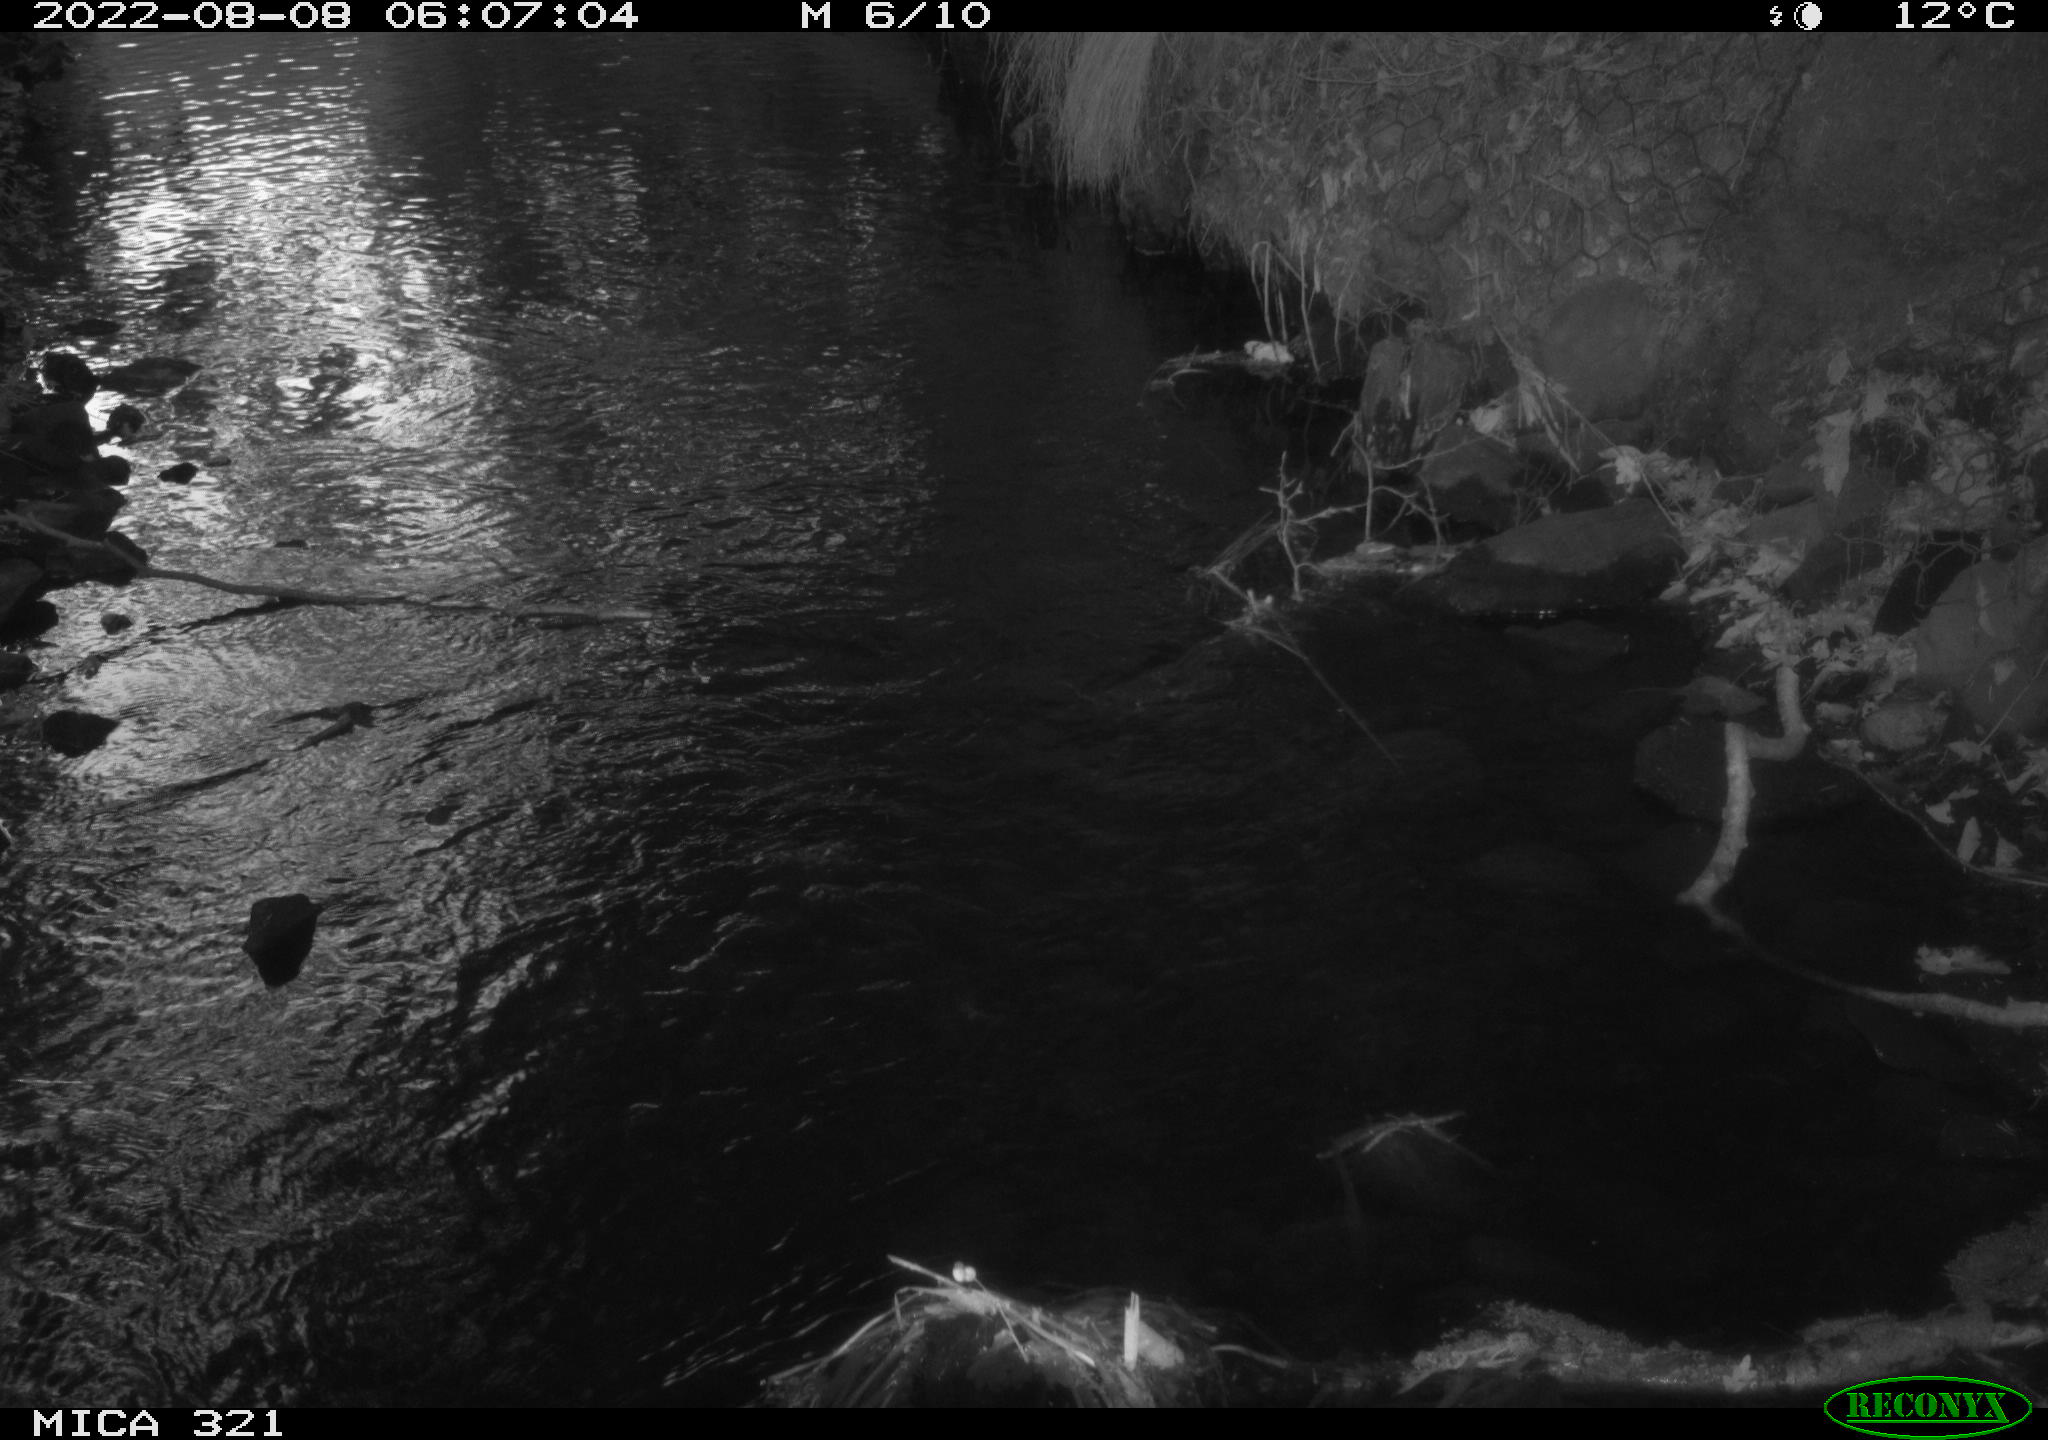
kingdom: Animalia
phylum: Chordata
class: Aves
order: Anseriformes
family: Anatidae
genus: Anas
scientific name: Anas platyrhynchos
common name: Mallard
